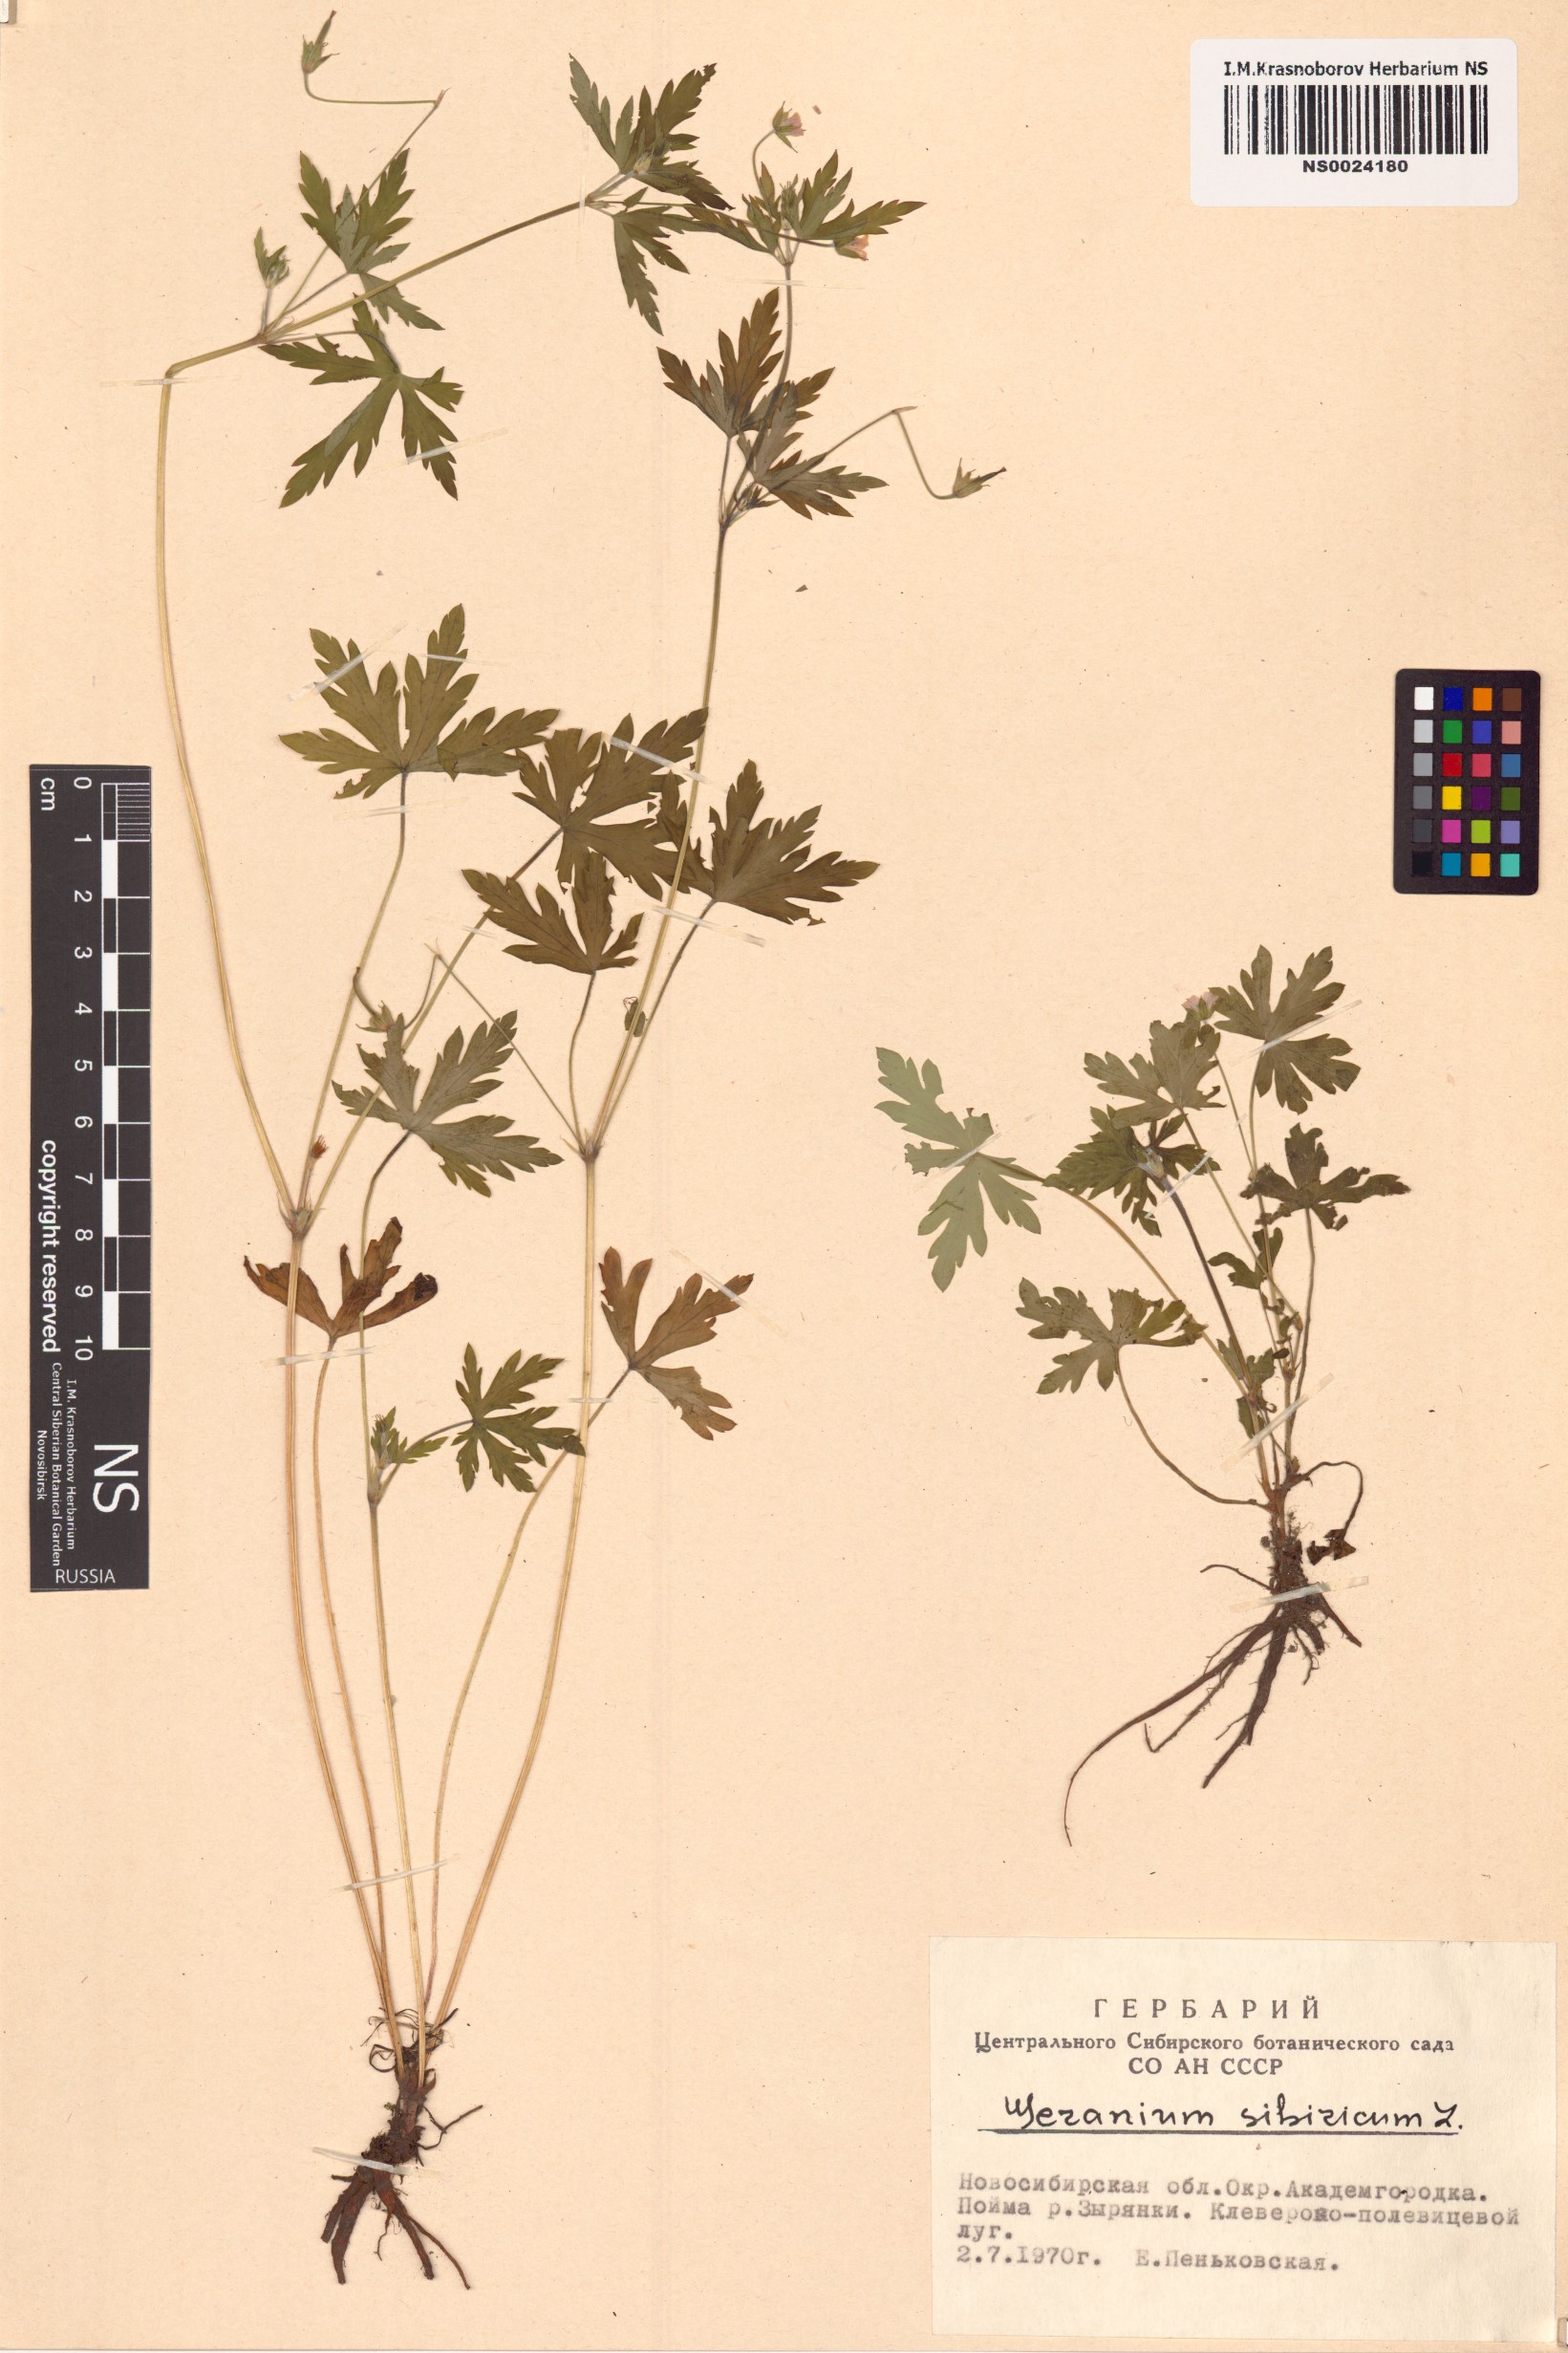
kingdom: Plantae
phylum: Tracheophyta
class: Magnoliopsida
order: Geraniales
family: Geraniaceae
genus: Geranium
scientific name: Geranium sibiricum
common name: Siberian crane's-bill
